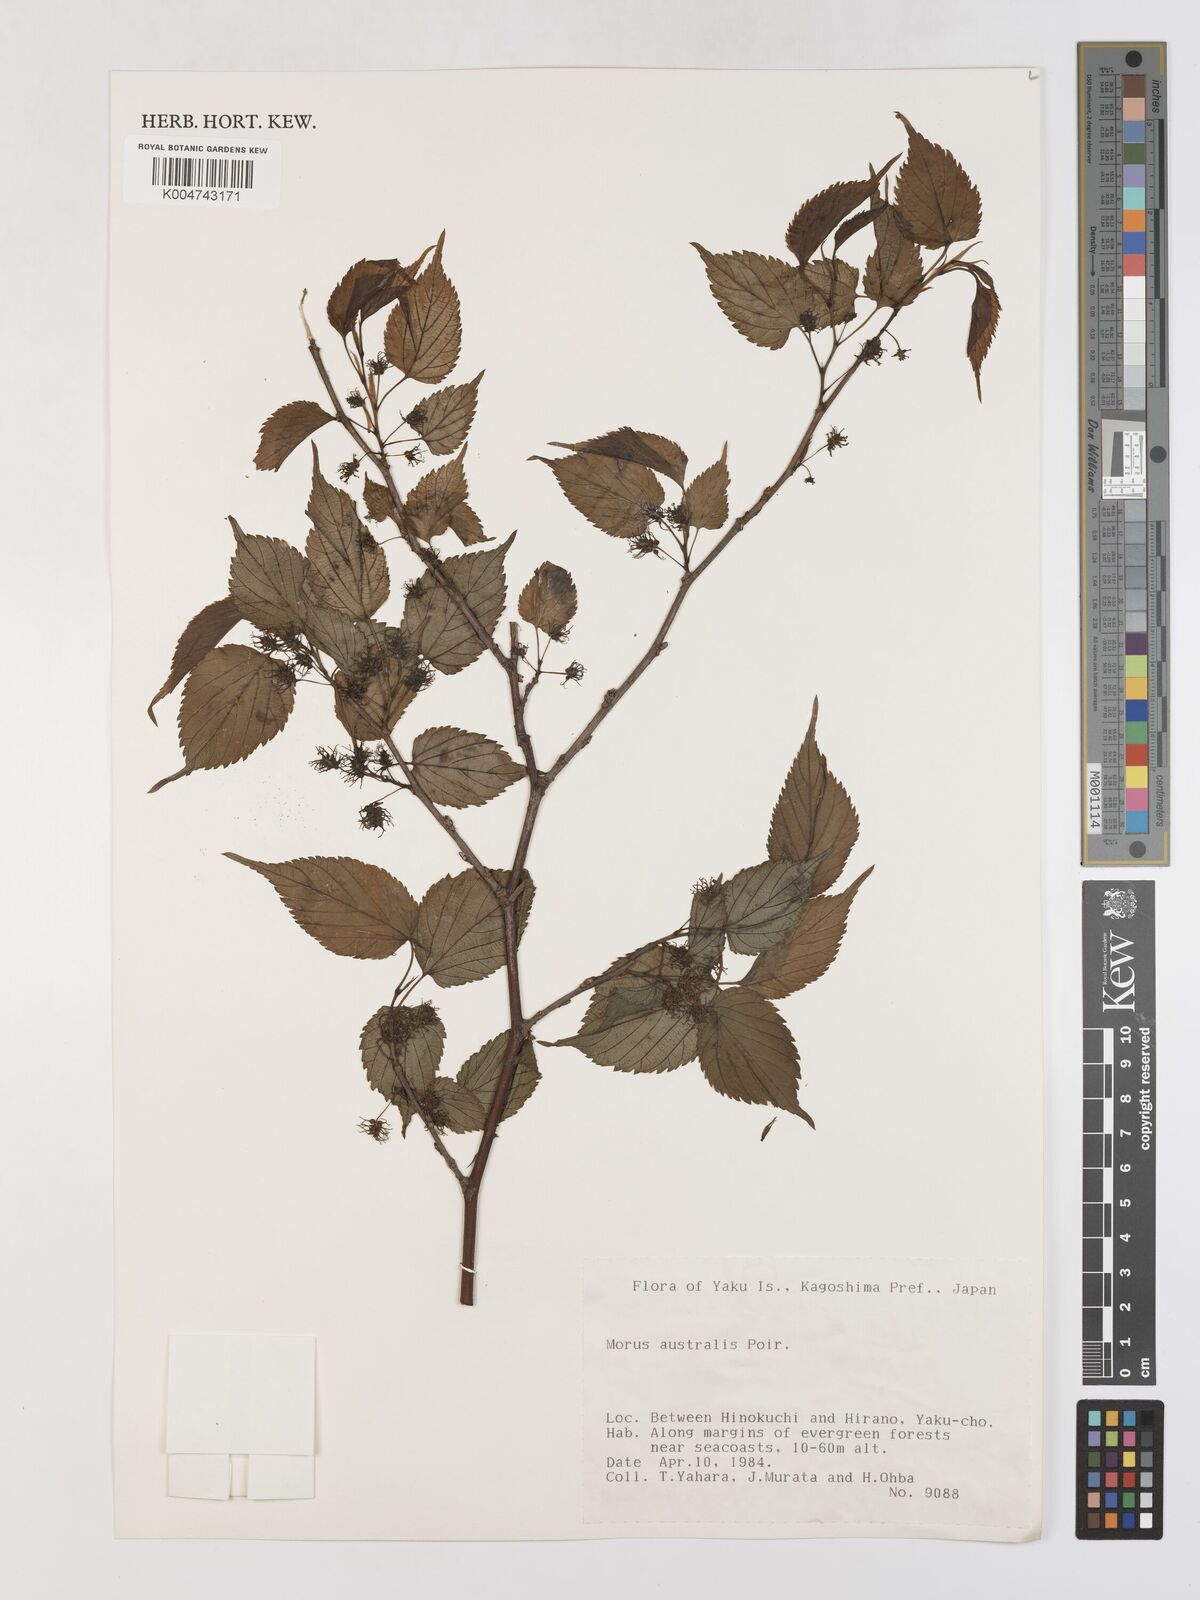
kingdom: Plantae
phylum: Tracheophyta
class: Magnoliopsida
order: Rosales
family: Moraceae
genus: Morus
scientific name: Morus indica
